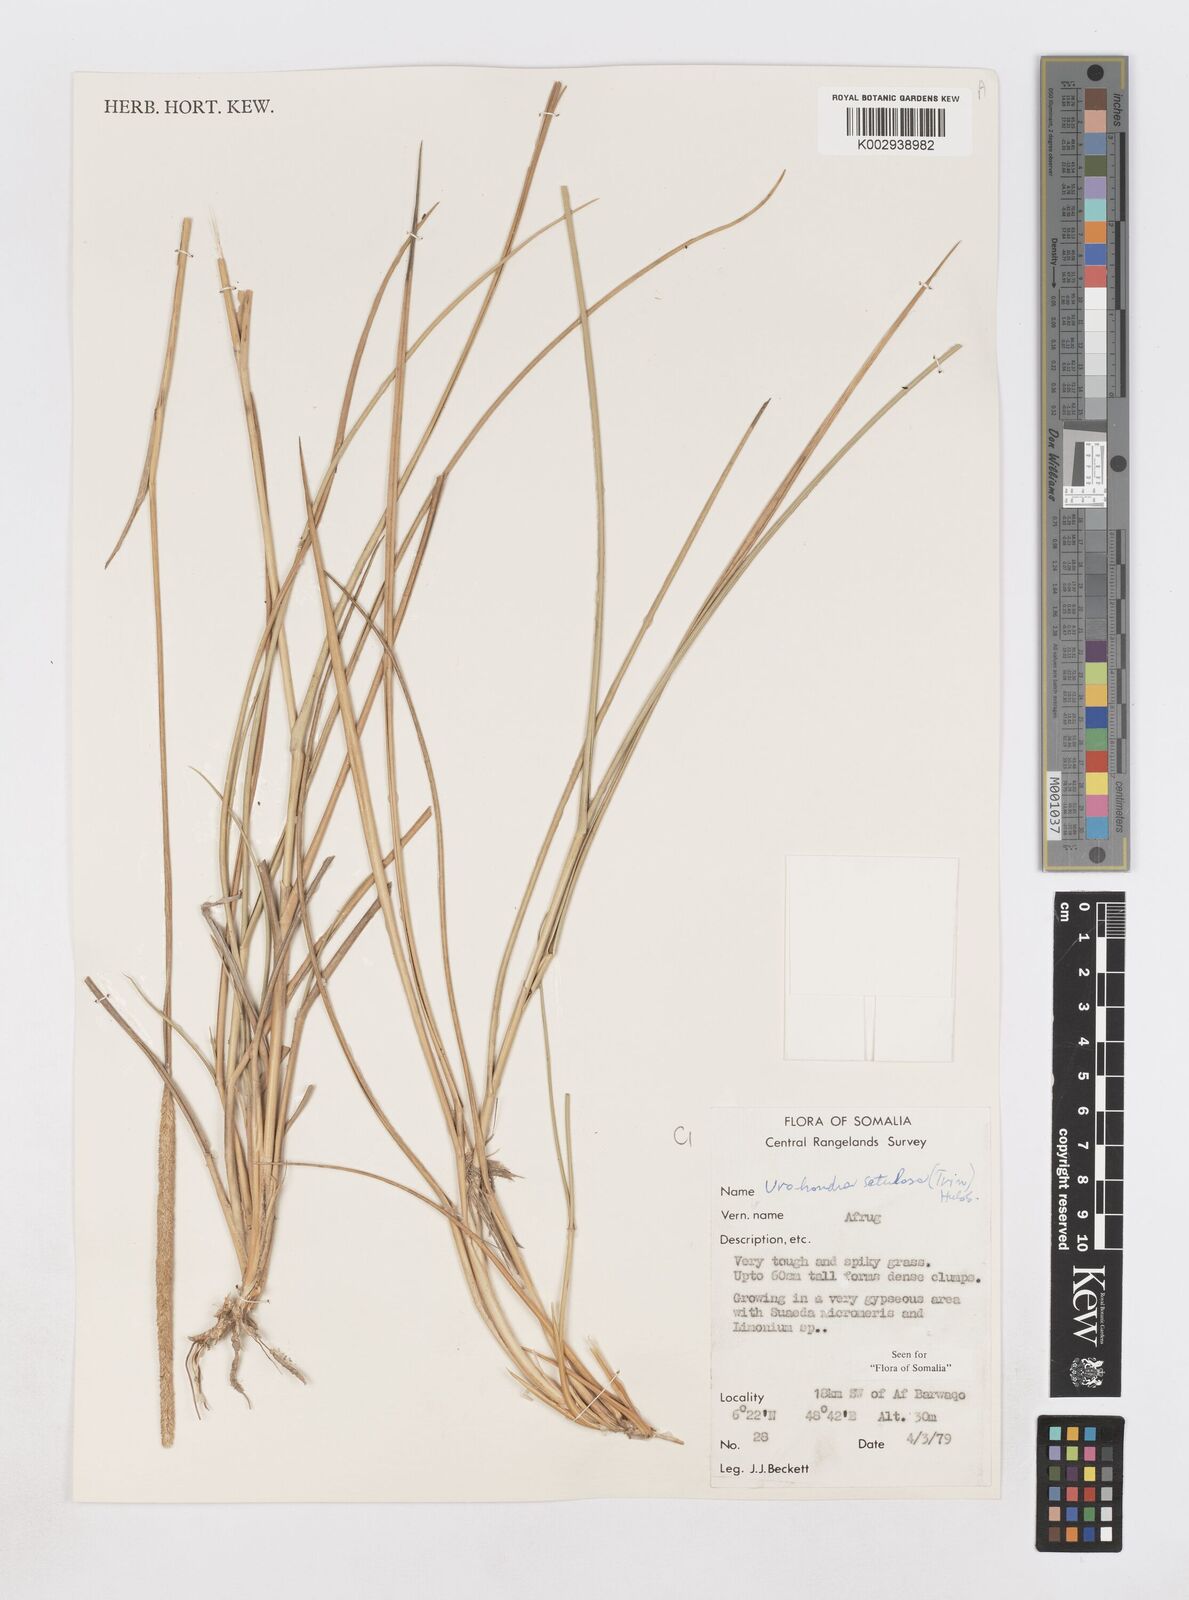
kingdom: Plantae
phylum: Tracheophyta
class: Liliopsida
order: Poales
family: Poaceae
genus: Urochondra
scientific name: Urochondra setulosa
